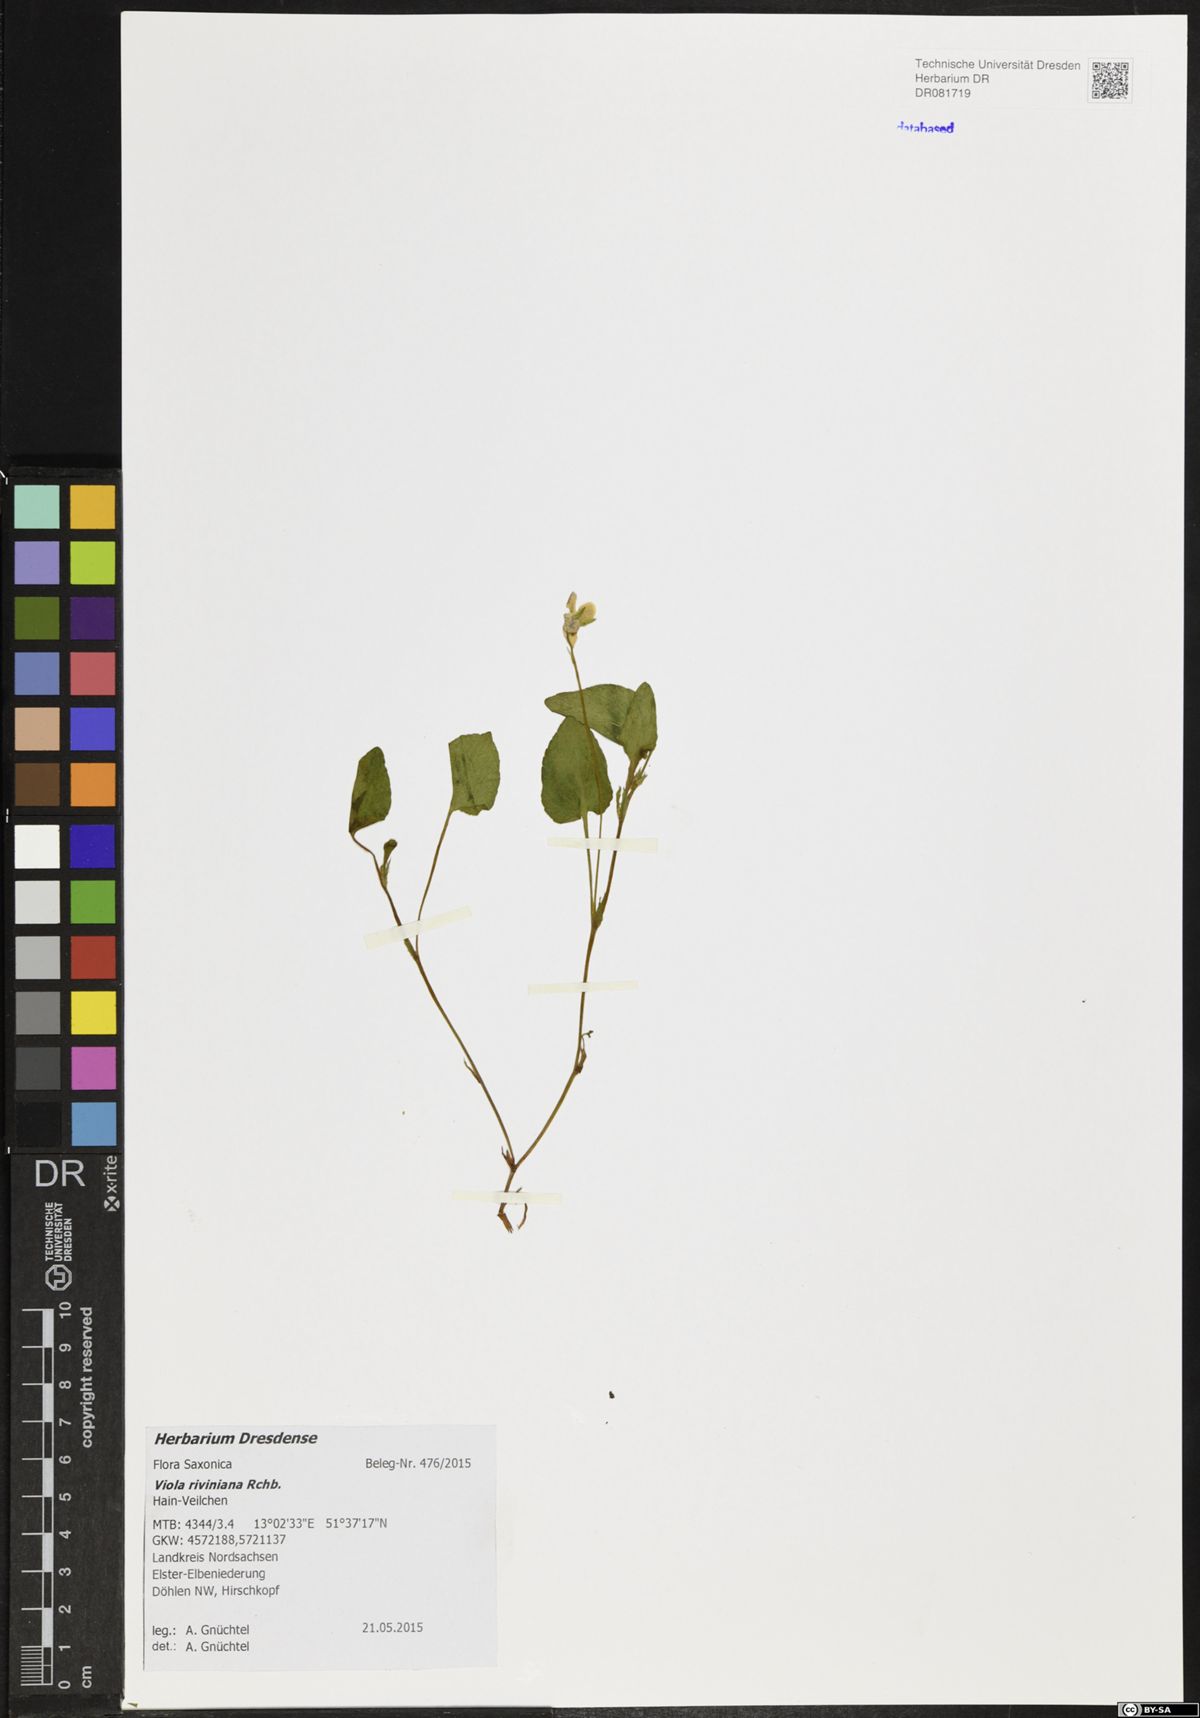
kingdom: Plantae
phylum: Tracheophyta
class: Magnoliopsida
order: Malpighiales
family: Violaceae
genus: Viola
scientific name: Viola riviniana
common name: Common dog-violet
